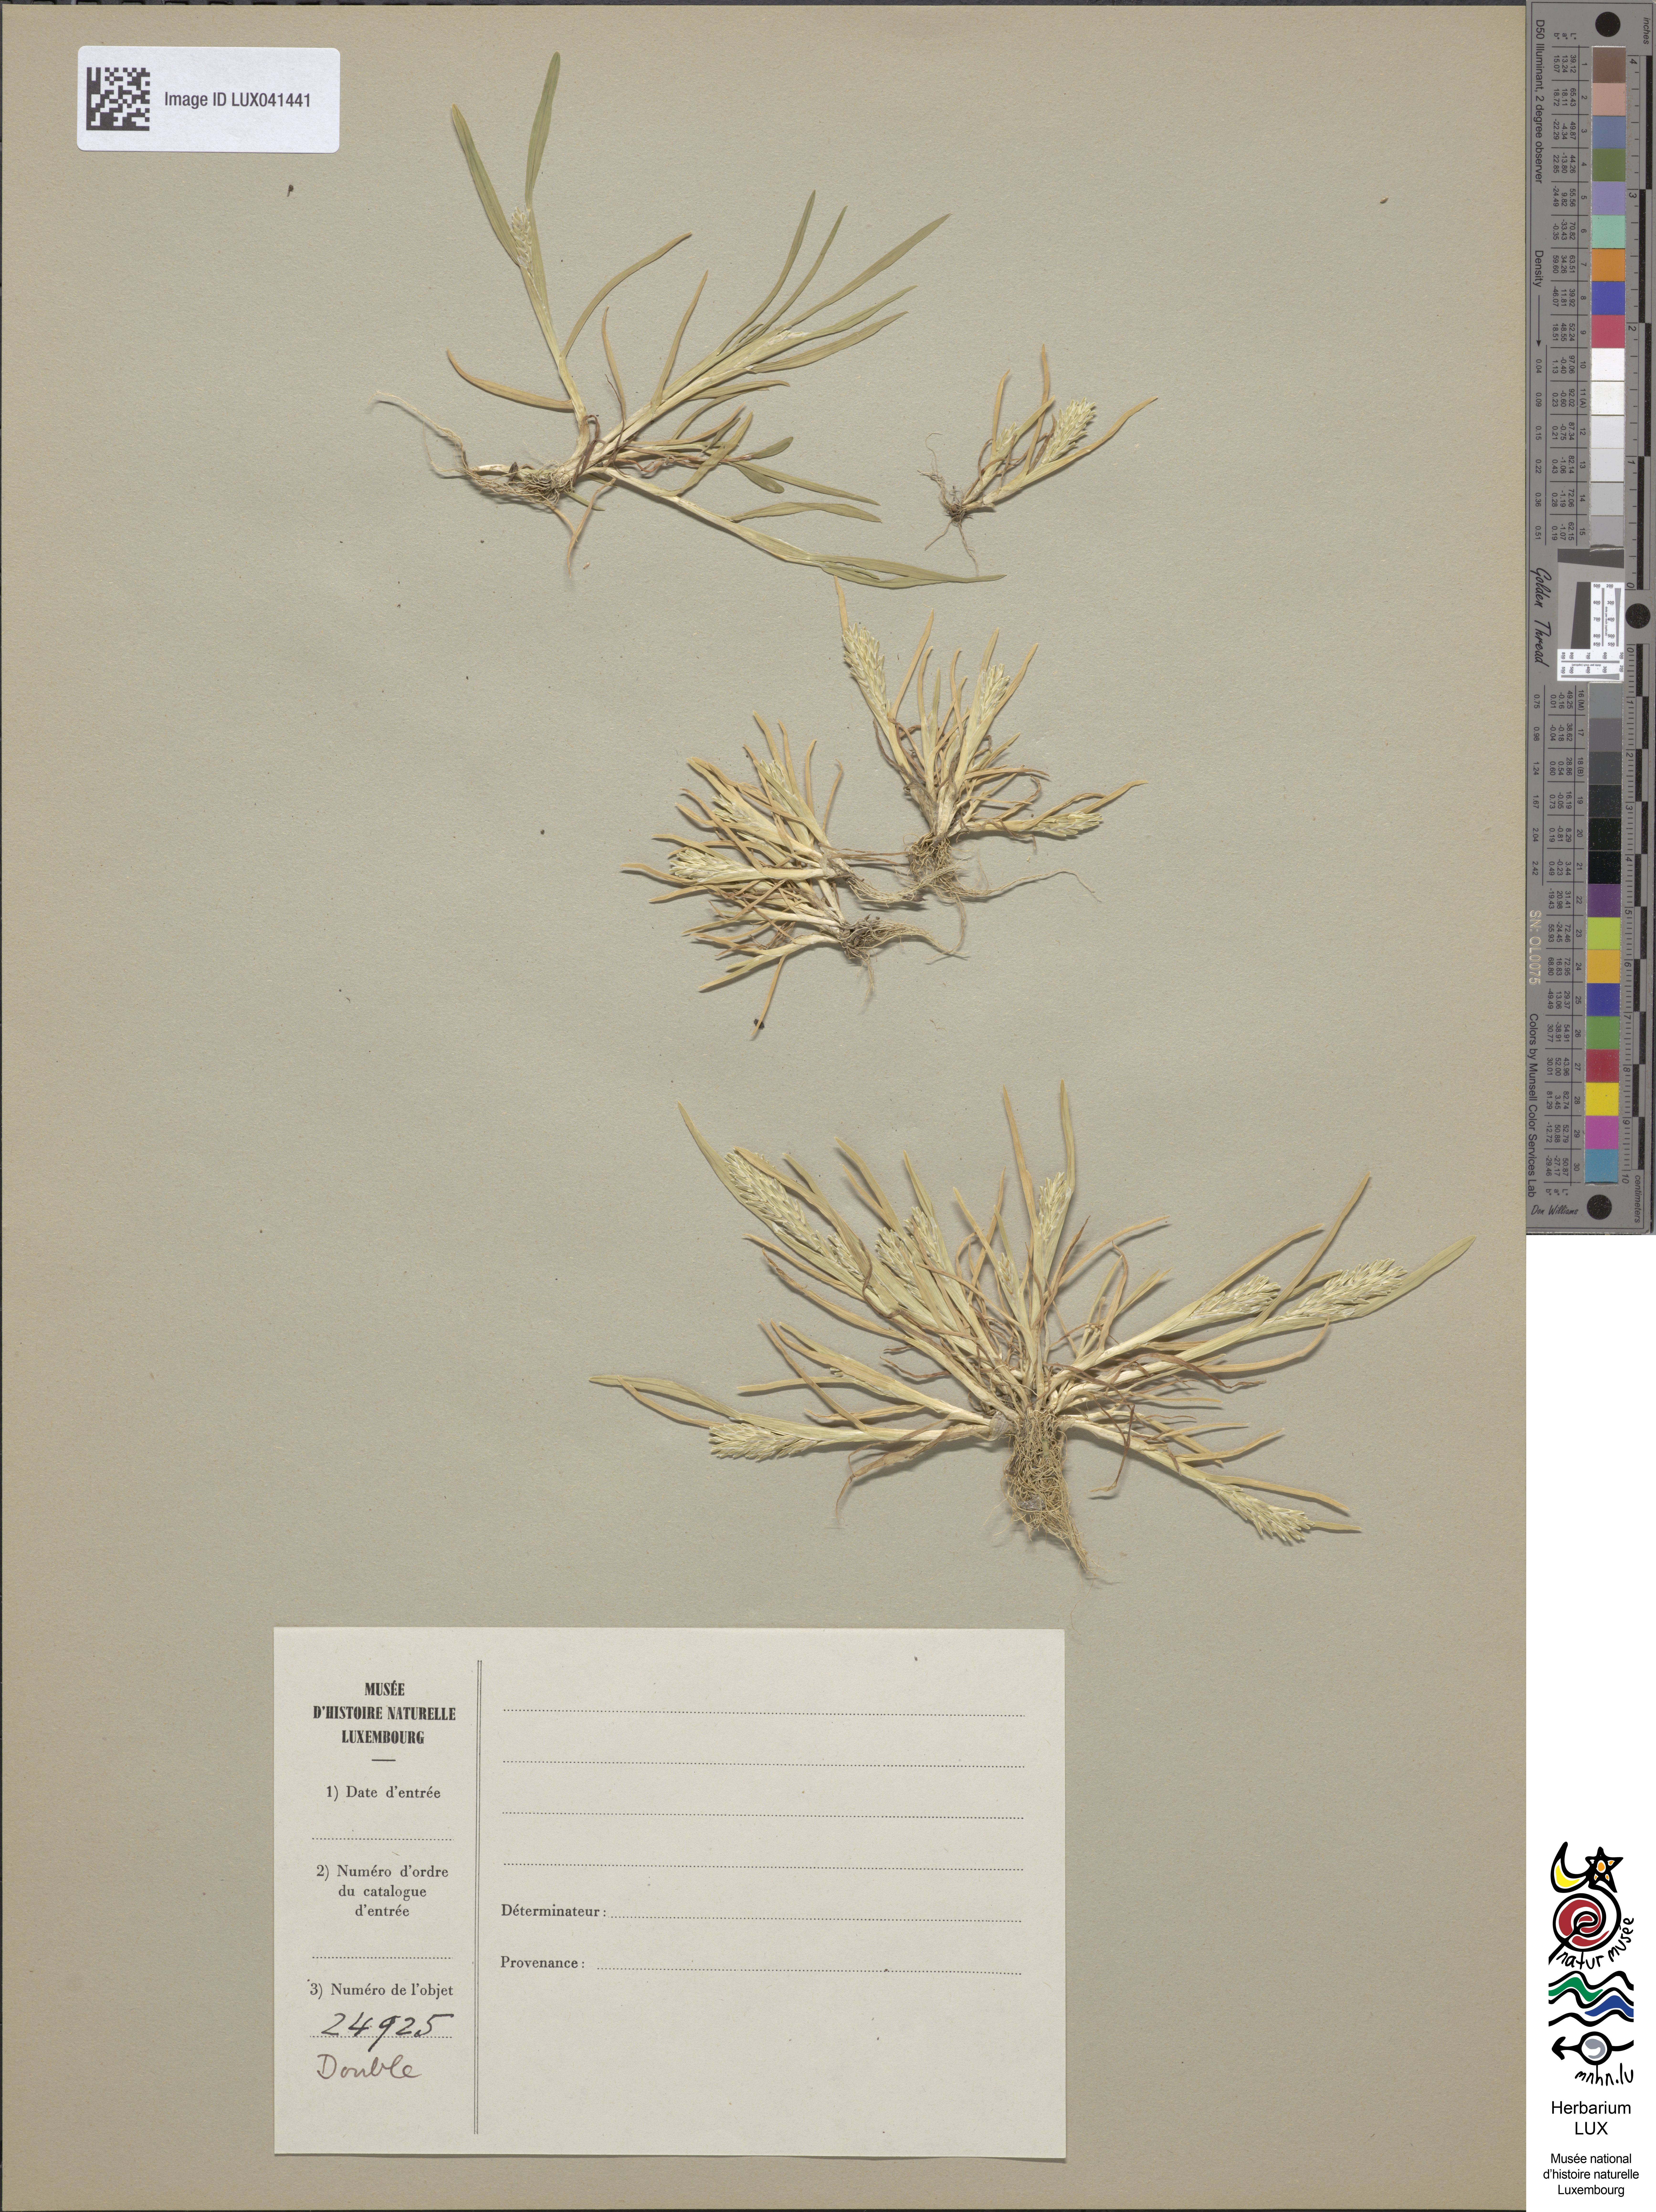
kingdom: Plantae
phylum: Tracheophyta
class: Liliopsida
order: Poales
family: Poaceae
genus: Sclerochloa
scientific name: Sclerochloa dura
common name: Common hardgrass
